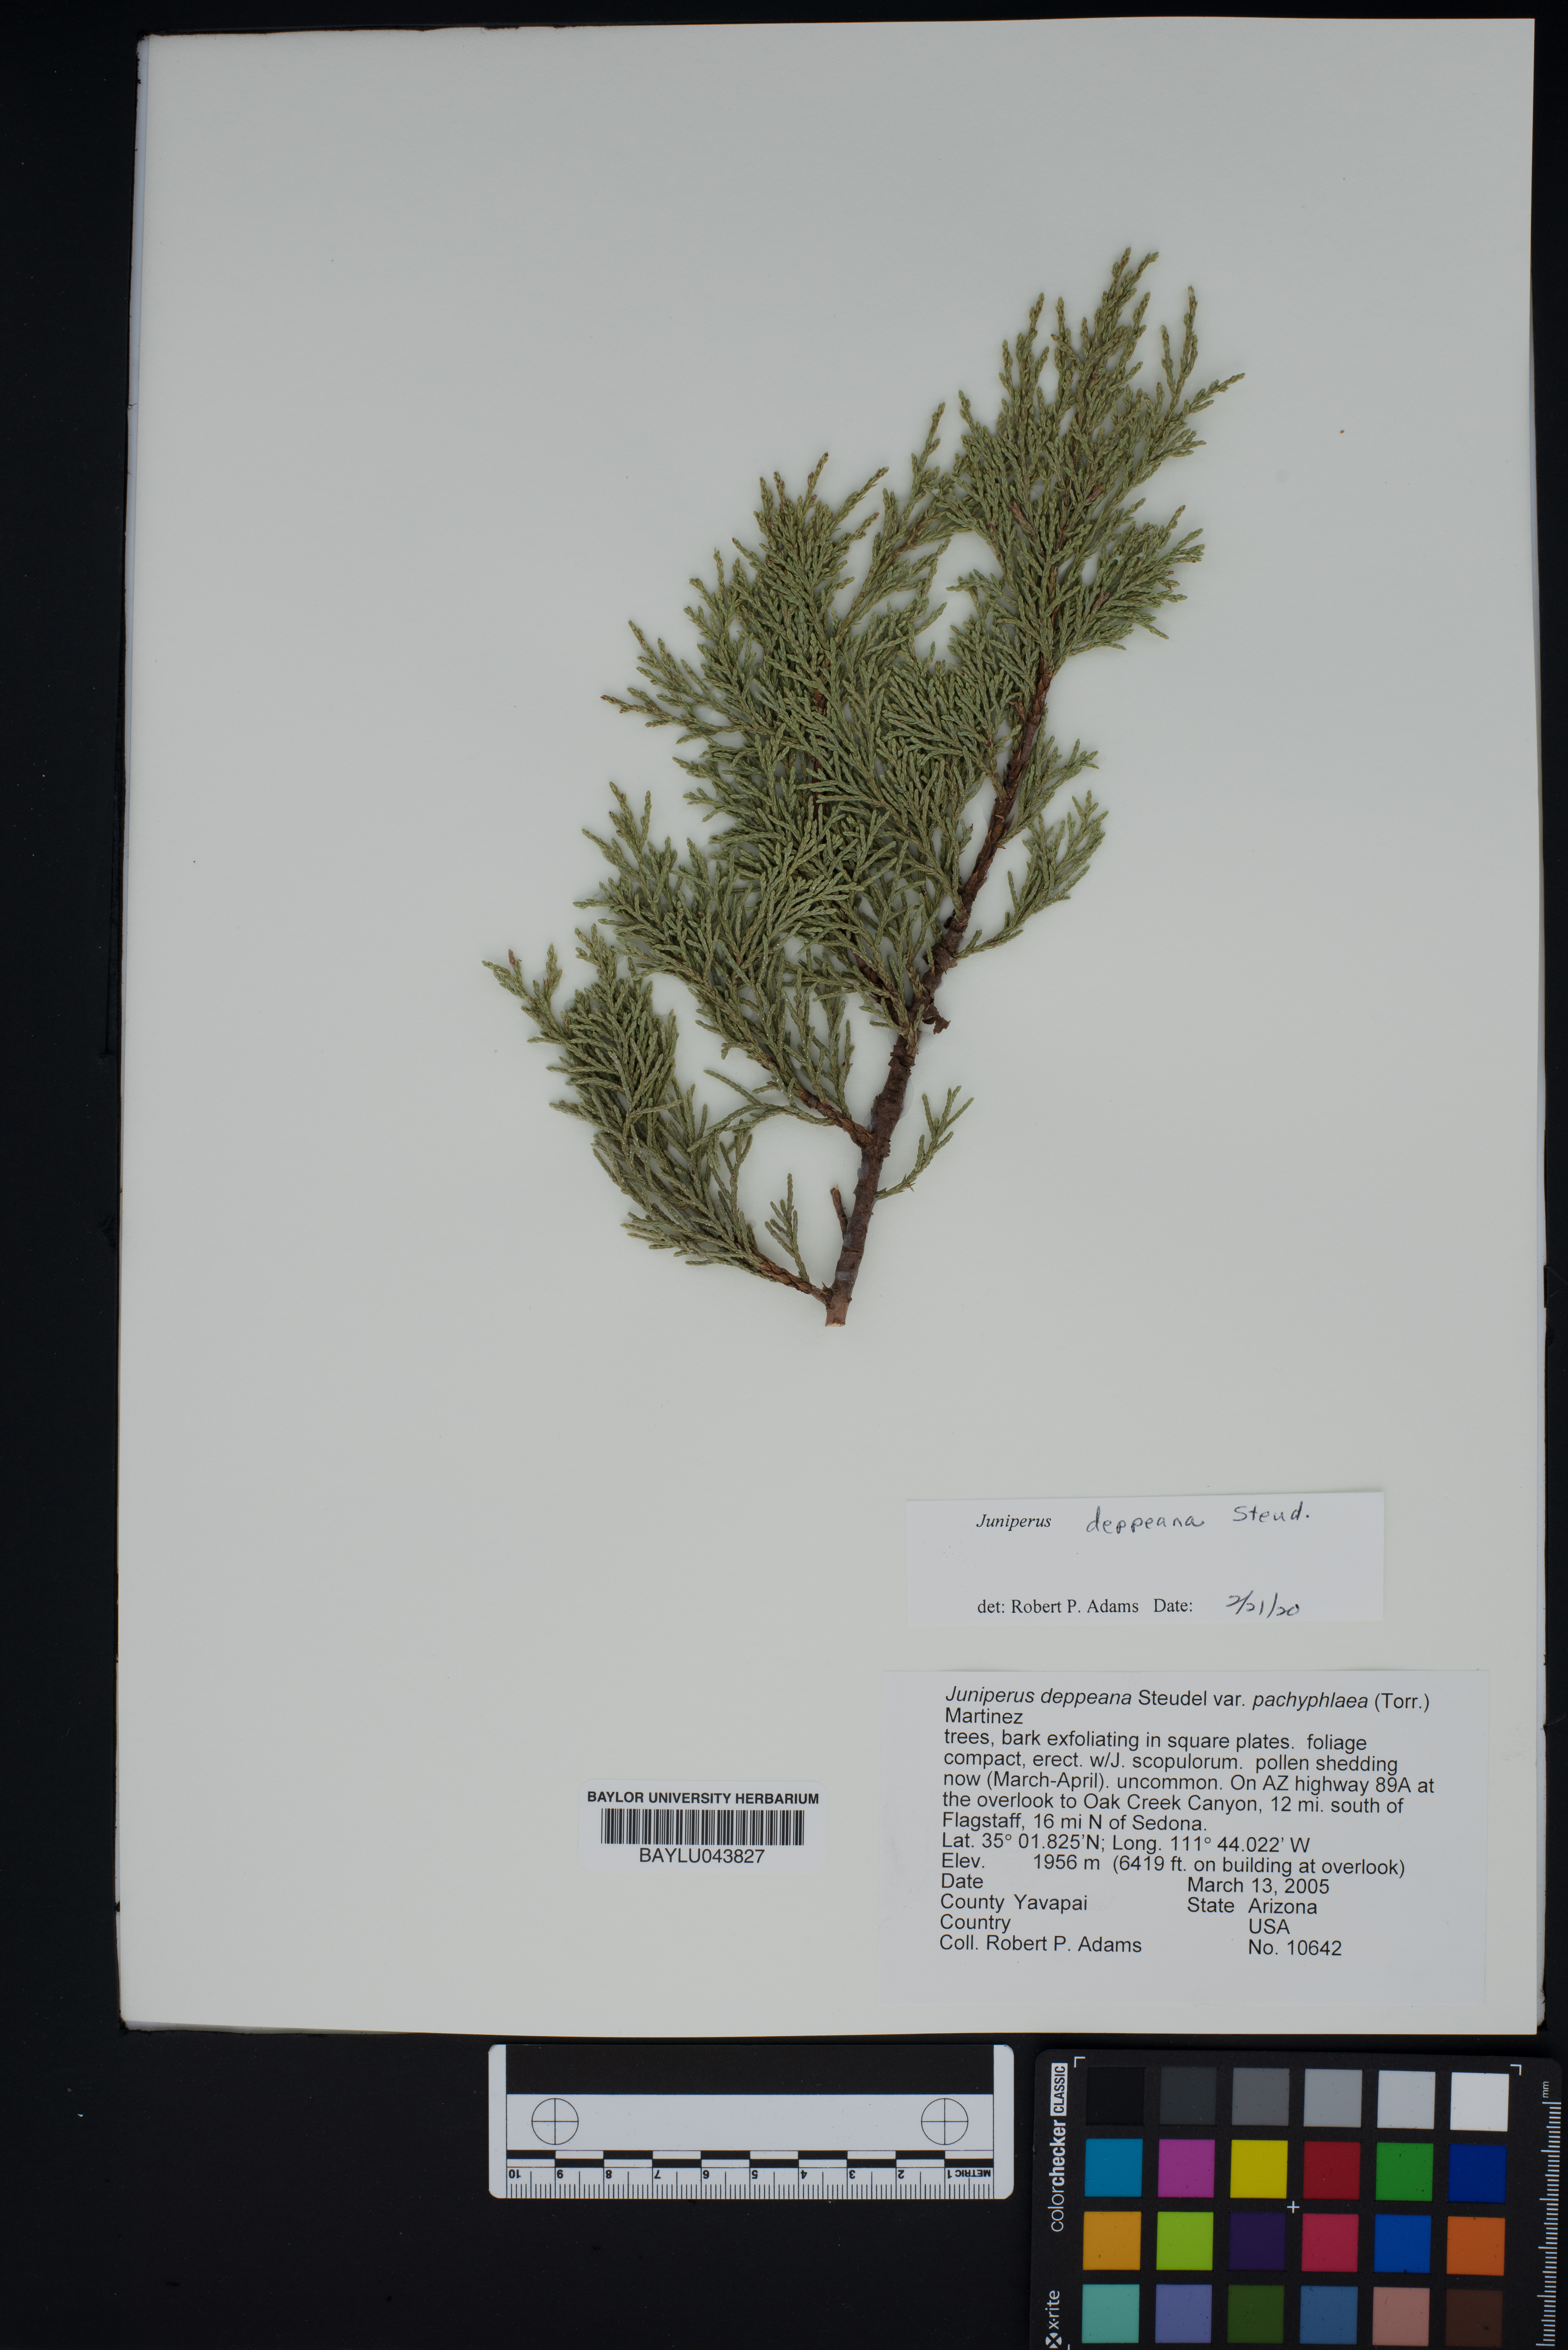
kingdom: Plantae
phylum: Tracheophyta
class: Pinopsida
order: Pinales
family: Cupressaceae
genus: Juniperus
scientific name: Juniperus deppeana
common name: Alligator juniper
